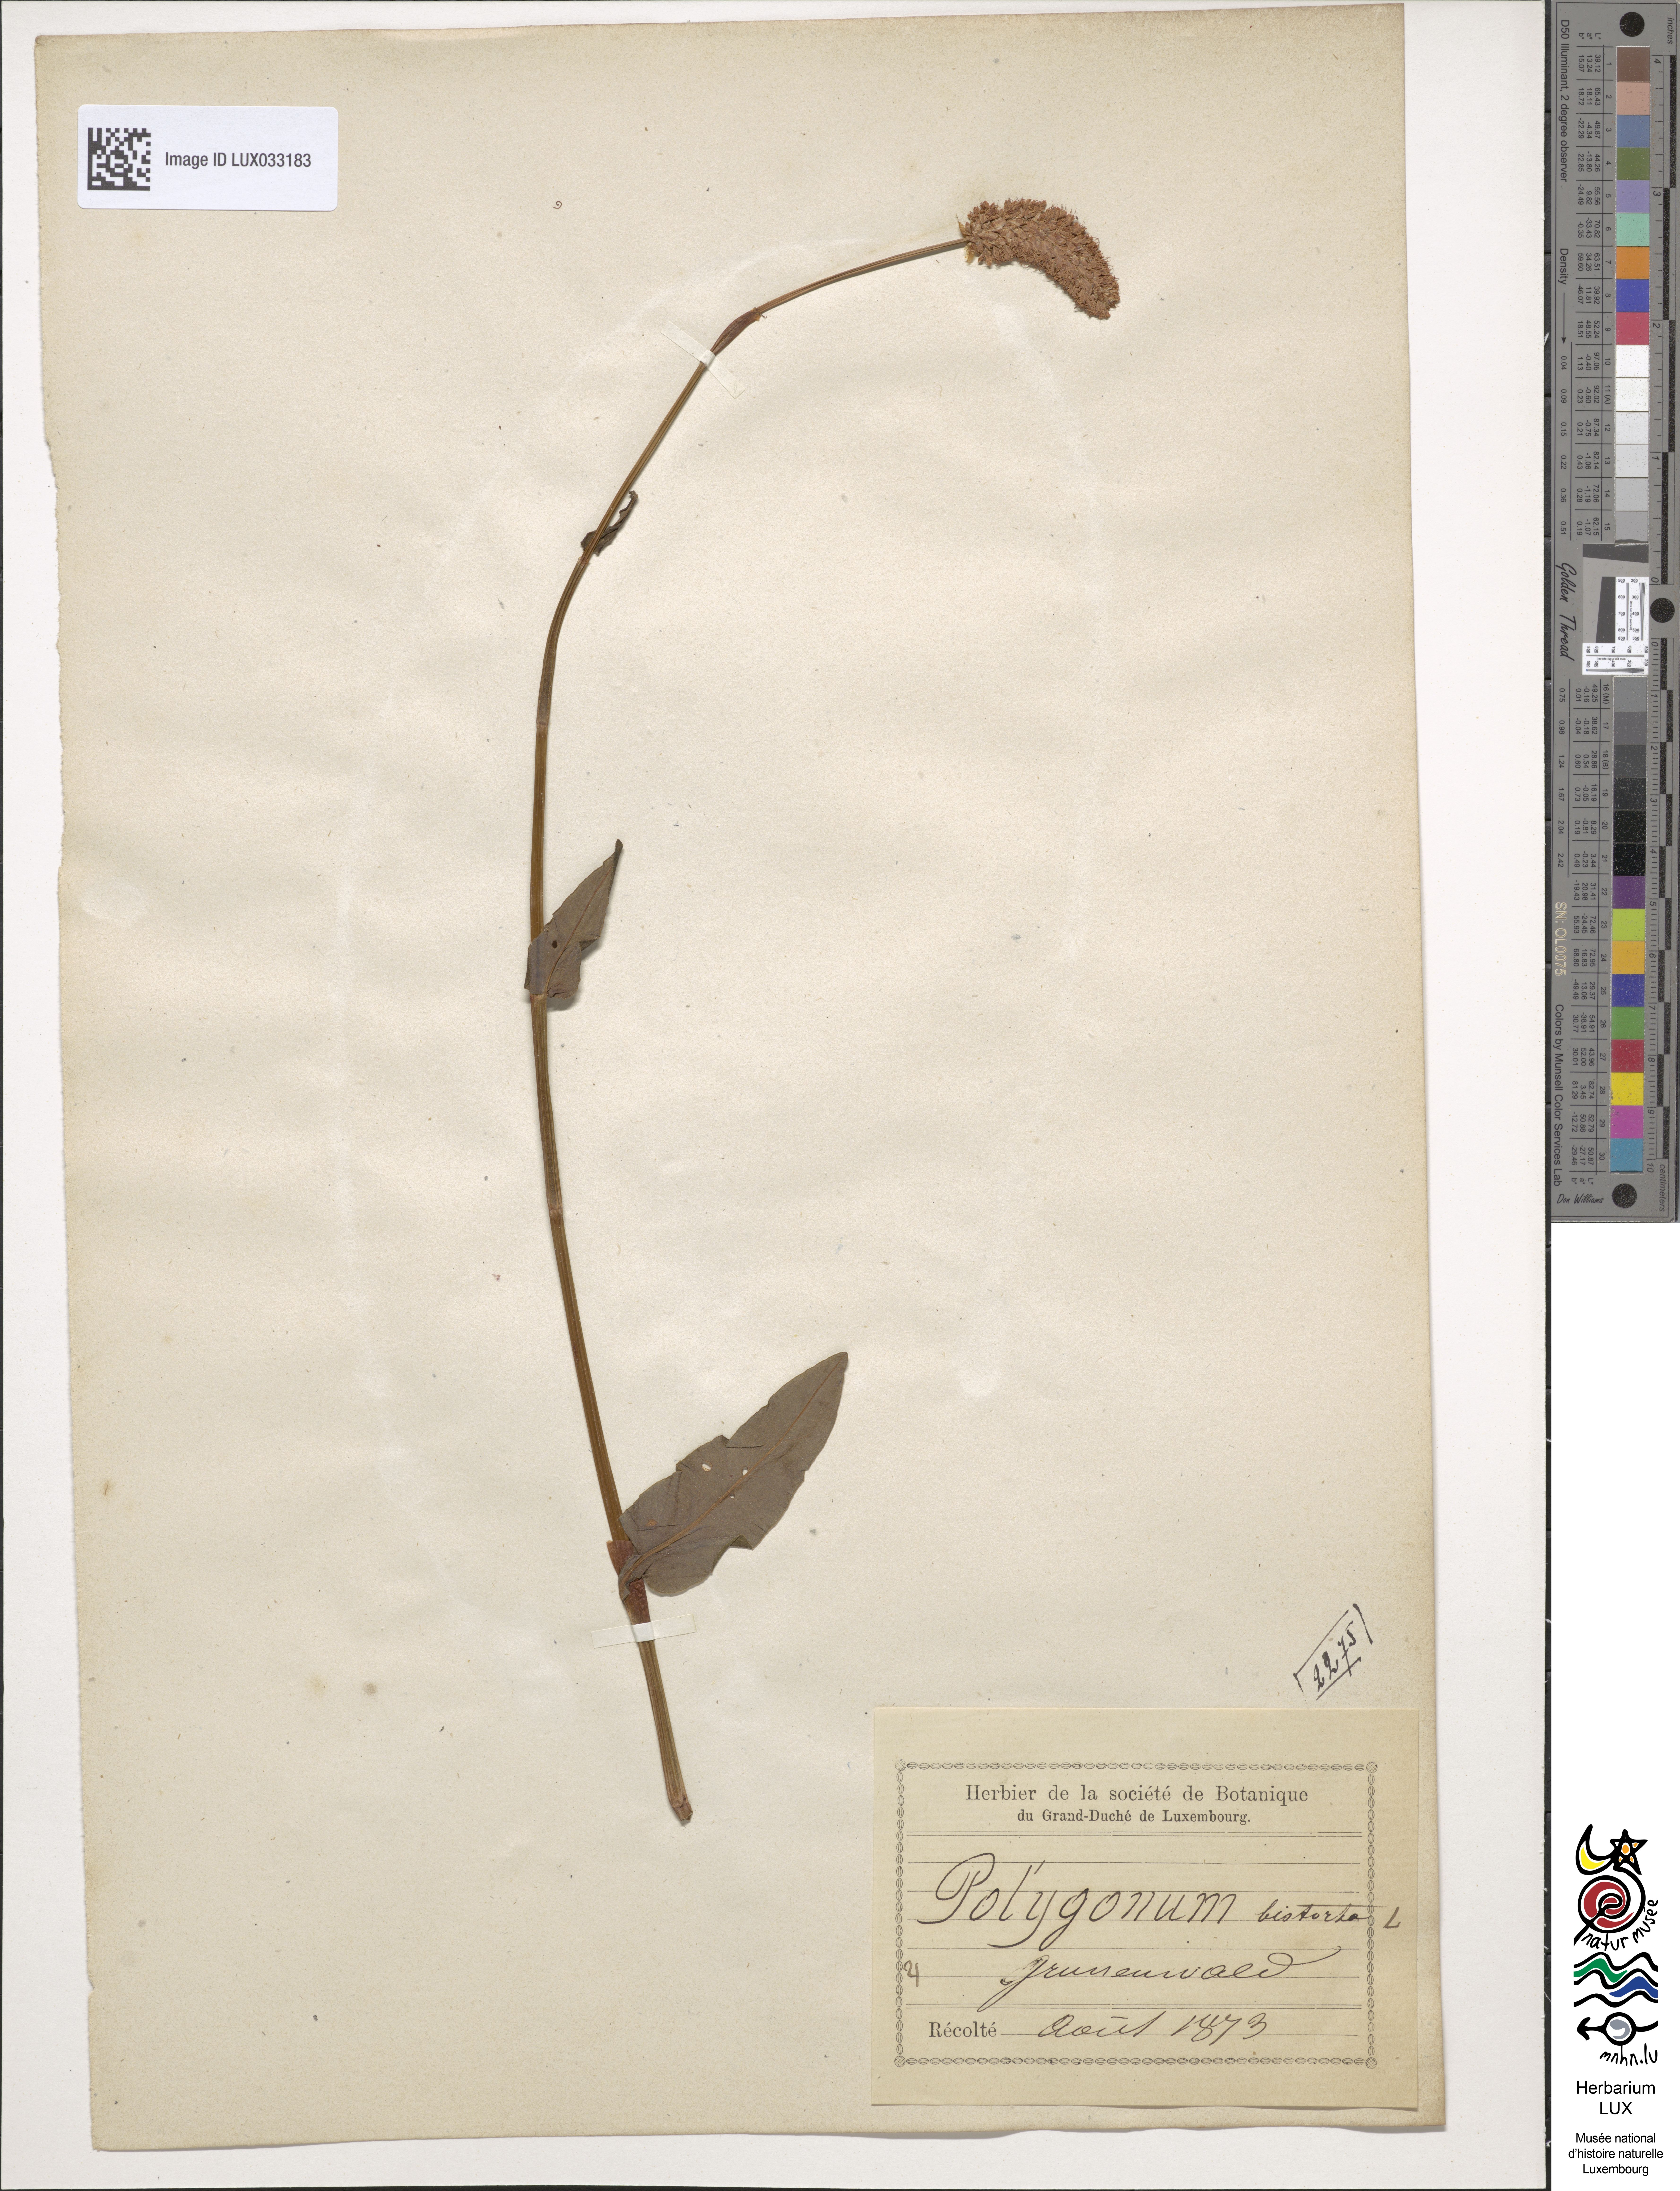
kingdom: Plantae
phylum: Tracheophyta
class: Magnoliopsida
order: Caryophyllales
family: Polygonaceae
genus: Bistorta
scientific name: Bistorta officinalis
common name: Common bistort
